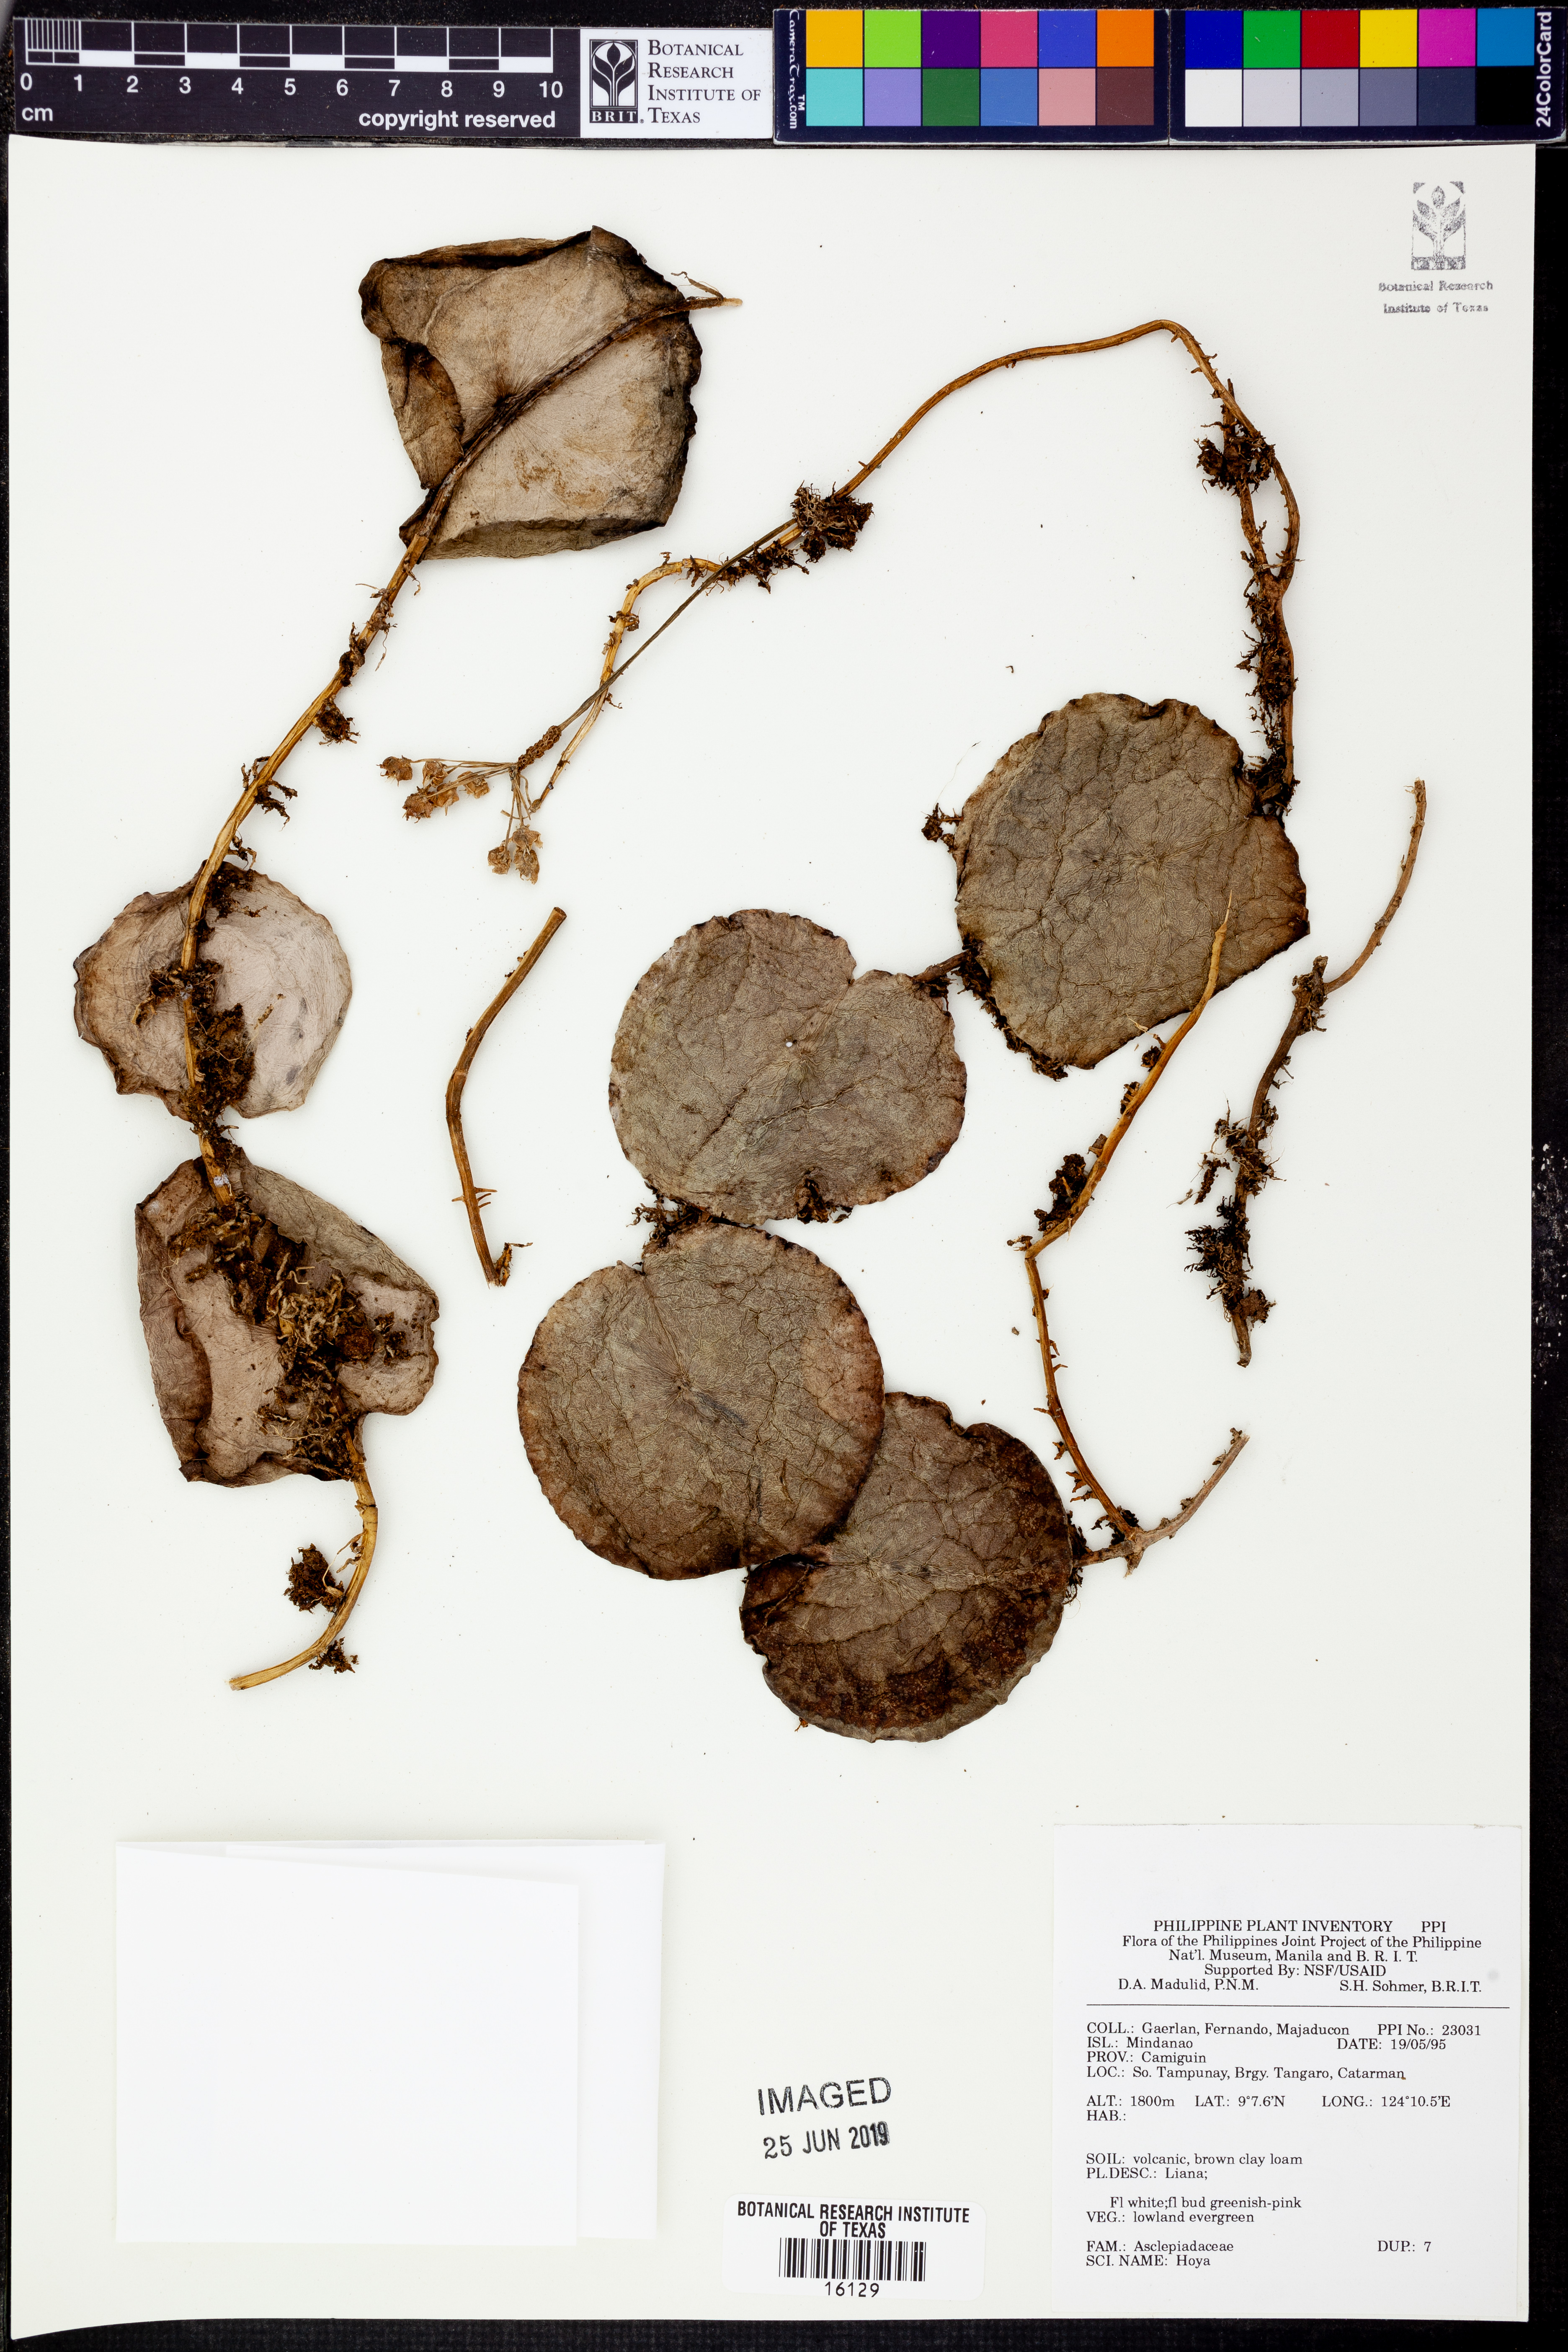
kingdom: Plantae
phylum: Tracheophyta
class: Magnoliopsida
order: Gentianales
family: Apocynaceae
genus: Hoya
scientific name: Hoya
